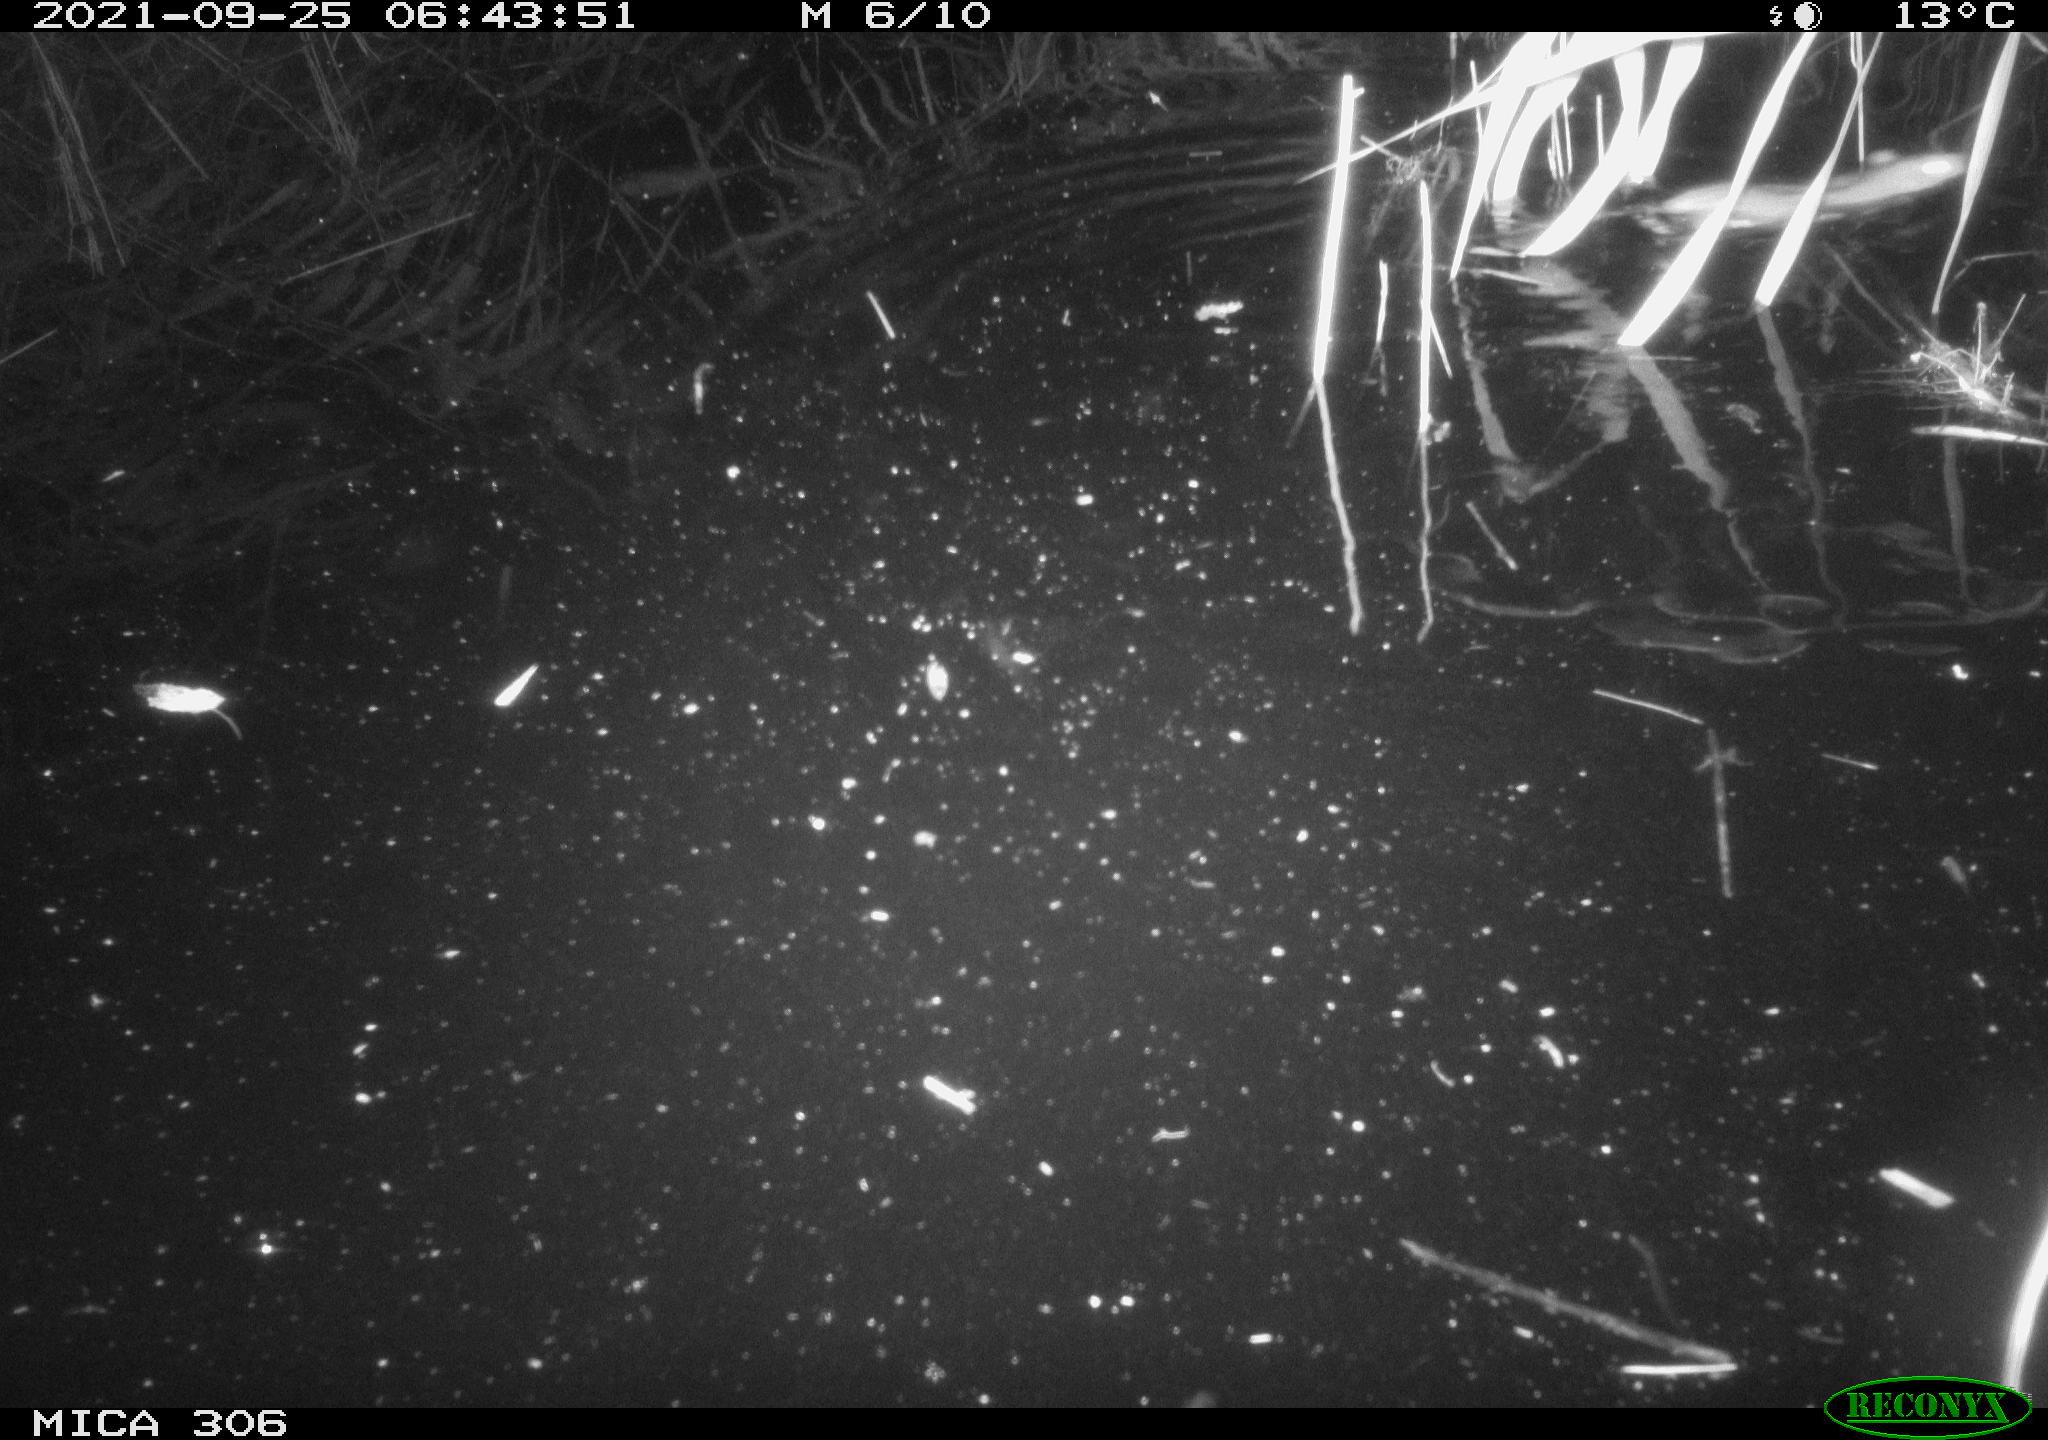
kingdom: Animalia
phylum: Chordata
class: Mammalia
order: Rodentia
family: Muridae
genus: Rattus
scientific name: Rattus norvegicus
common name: Brown rat
